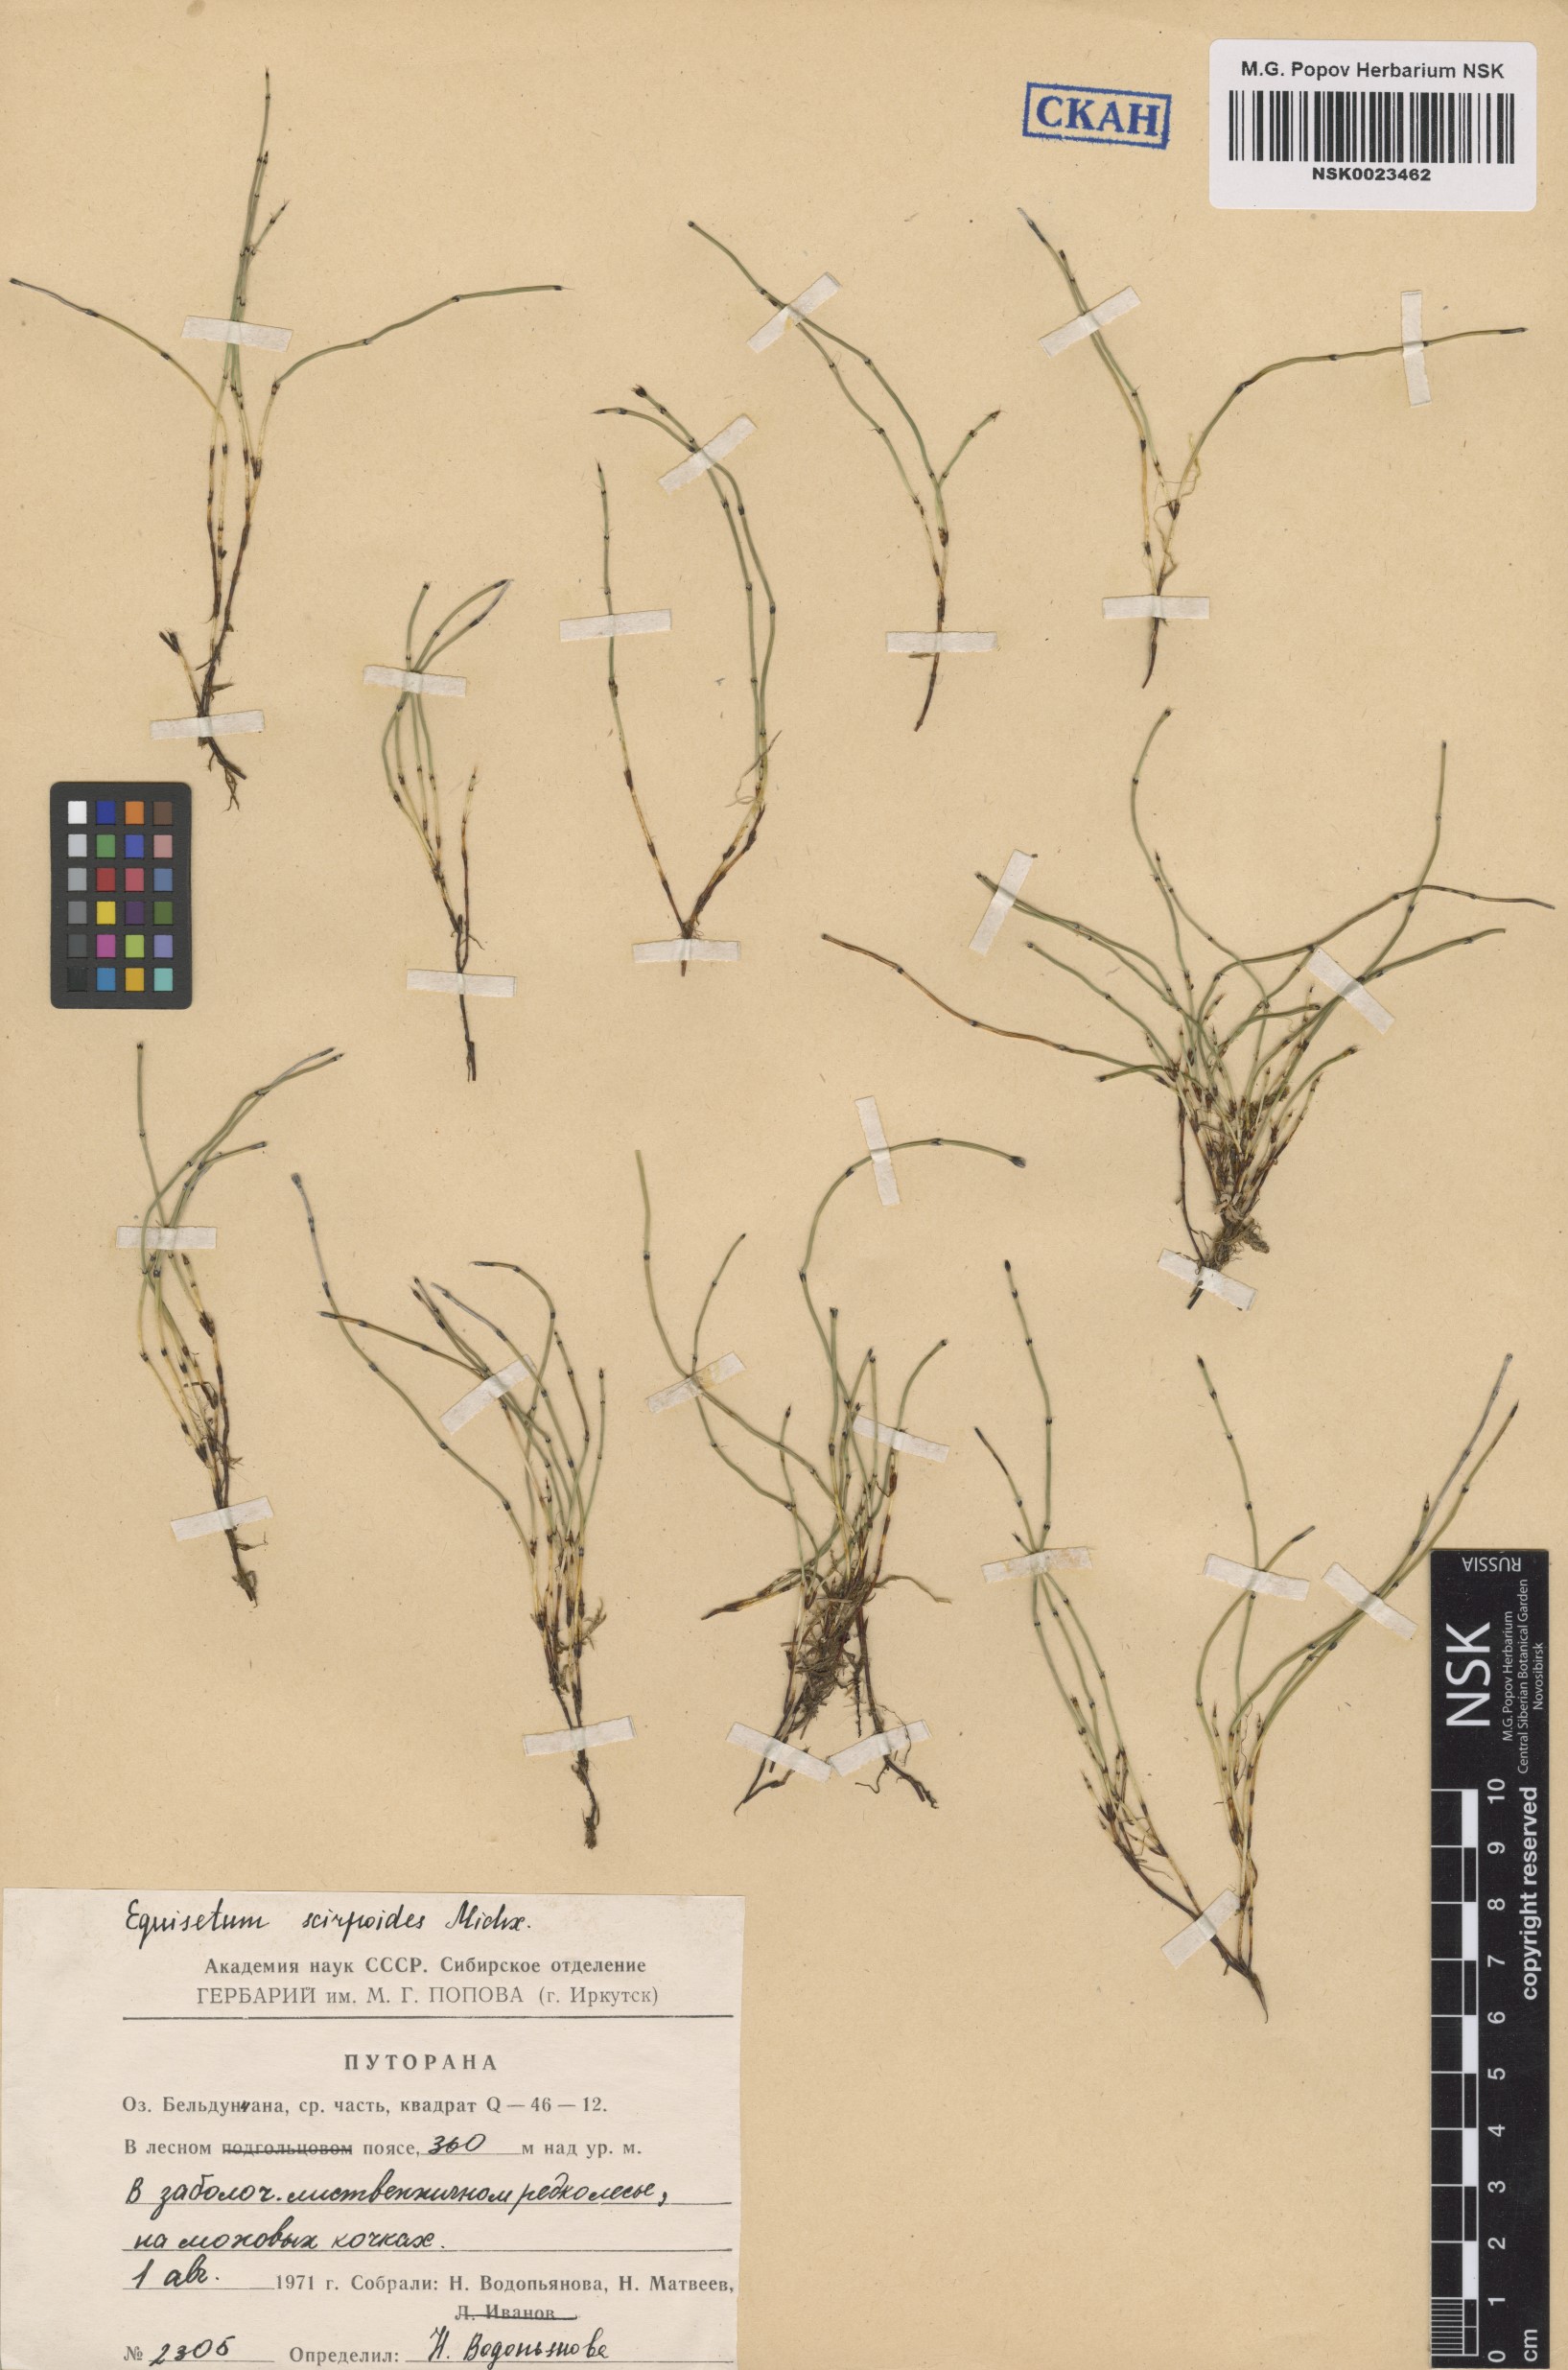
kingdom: Plantae
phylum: Tracheophyta
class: Polypodiopsida
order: Equisetales
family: Equisetaceae
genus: Equisetum
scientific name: Equisetum scirpoides
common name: Delicate horsetail
